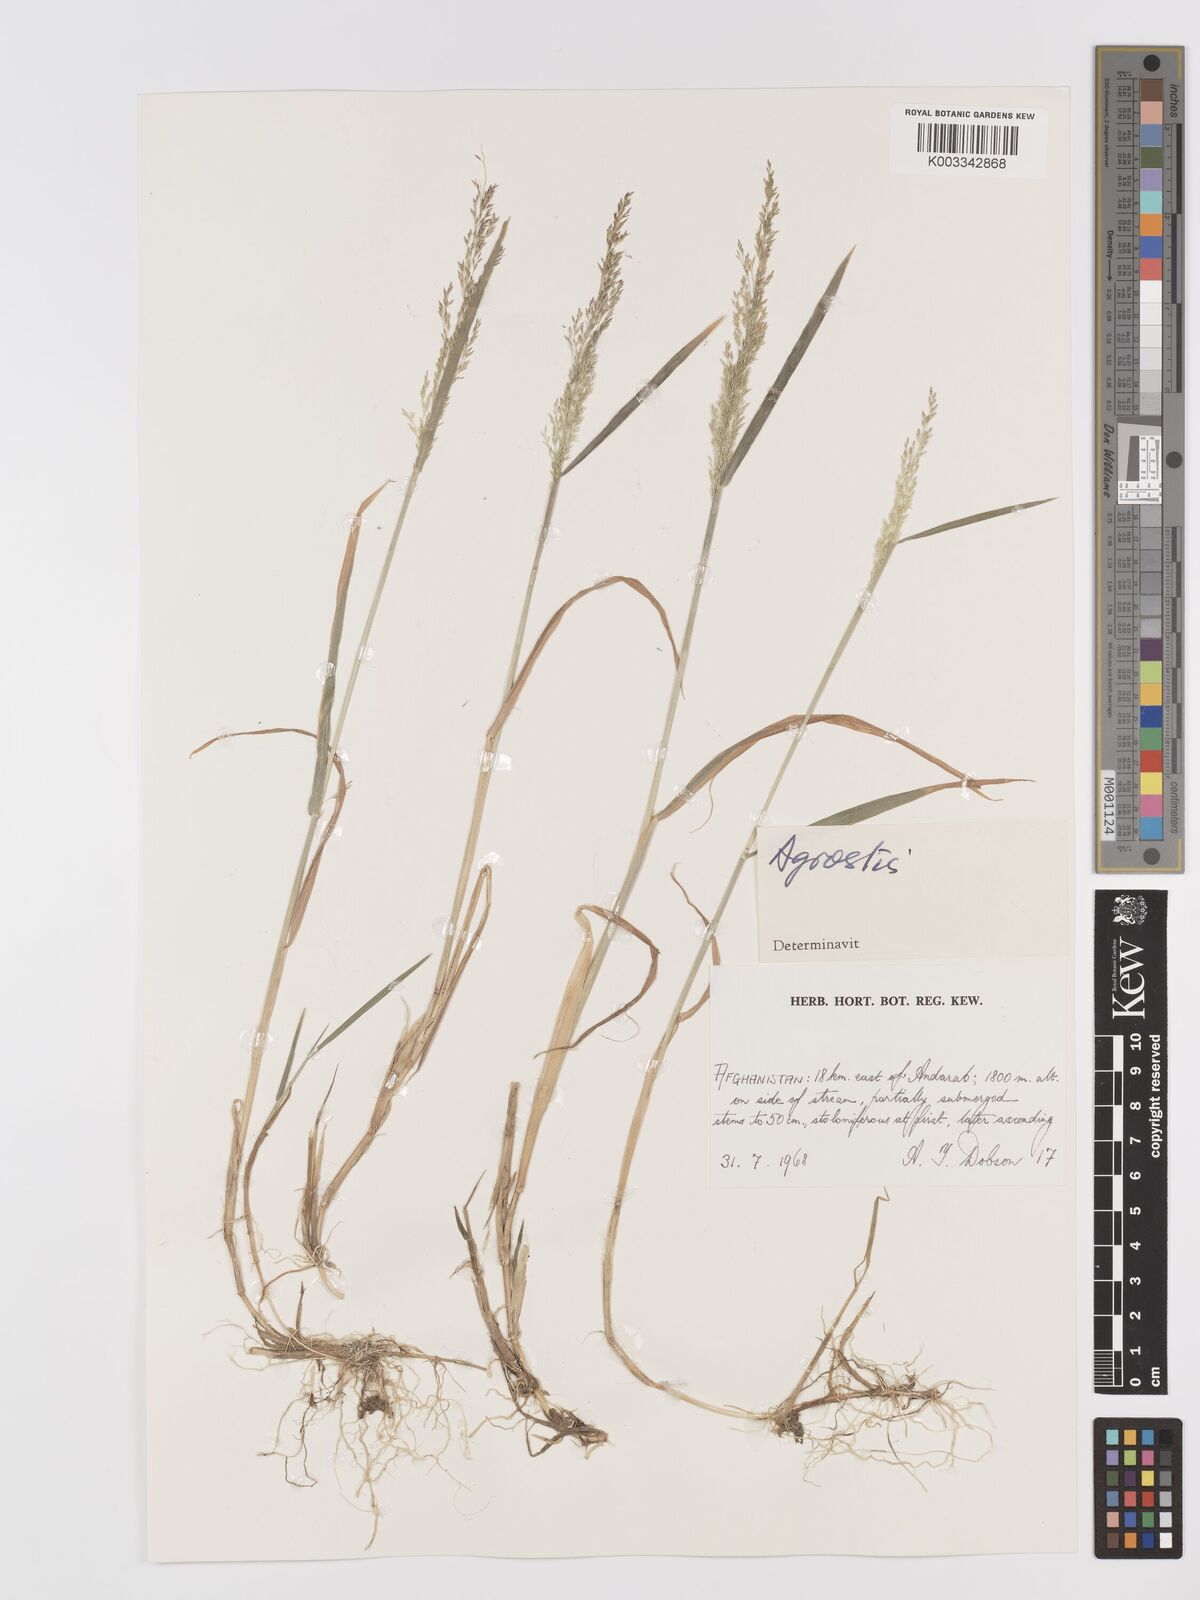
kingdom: Plantae
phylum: Tracheophyta
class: Liliopsida
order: Poales
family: Poaceae
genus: Agrostis
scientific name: Agrostis
